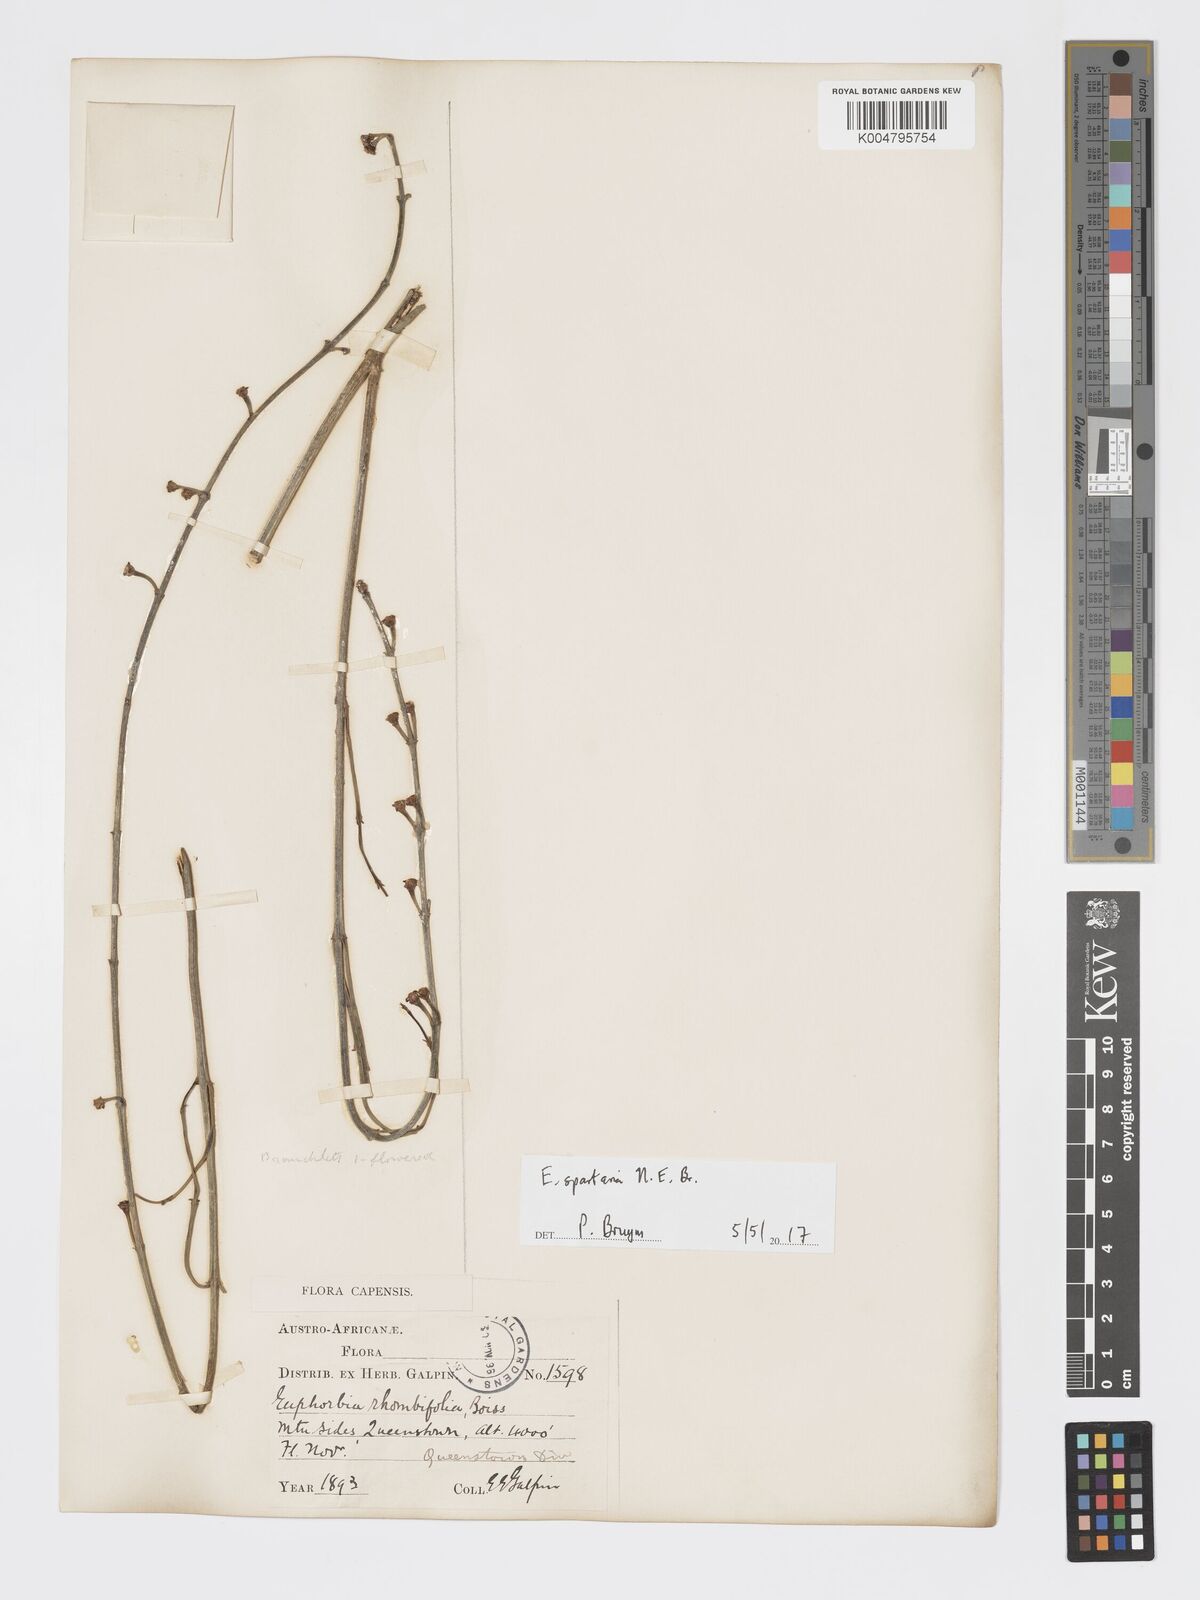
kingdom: Plantae
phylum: Tracheophyta
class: Magnoliopsida
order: Malpighiales
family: Euphorbiaceae
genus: Euphorbia
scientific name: Euphorbia spartaria
